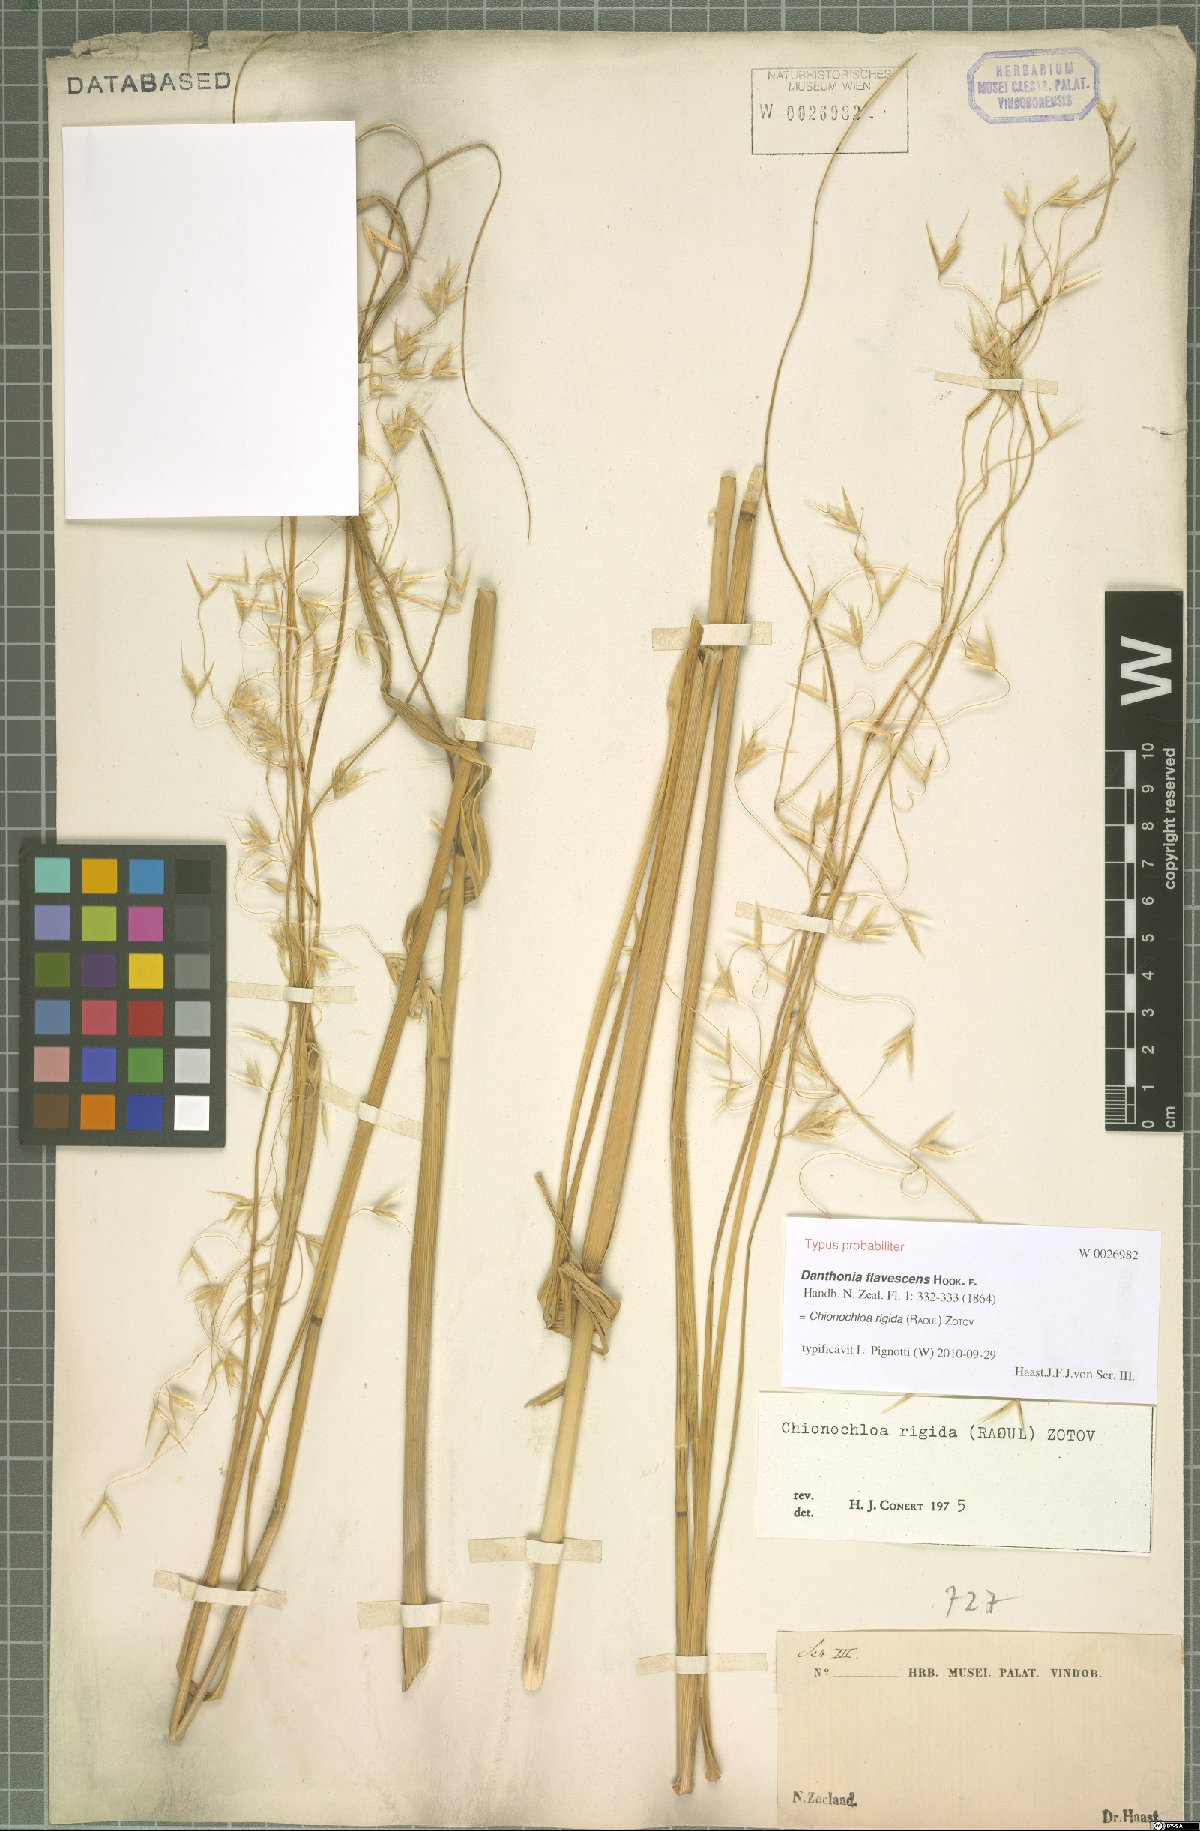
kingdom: Plantae
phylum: Tracheophyta
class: Liliopsida
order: Poales
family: Poaceae
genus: Chionochloa
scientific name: Chionochloa rigida
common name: Narrow leaved snow tussock
